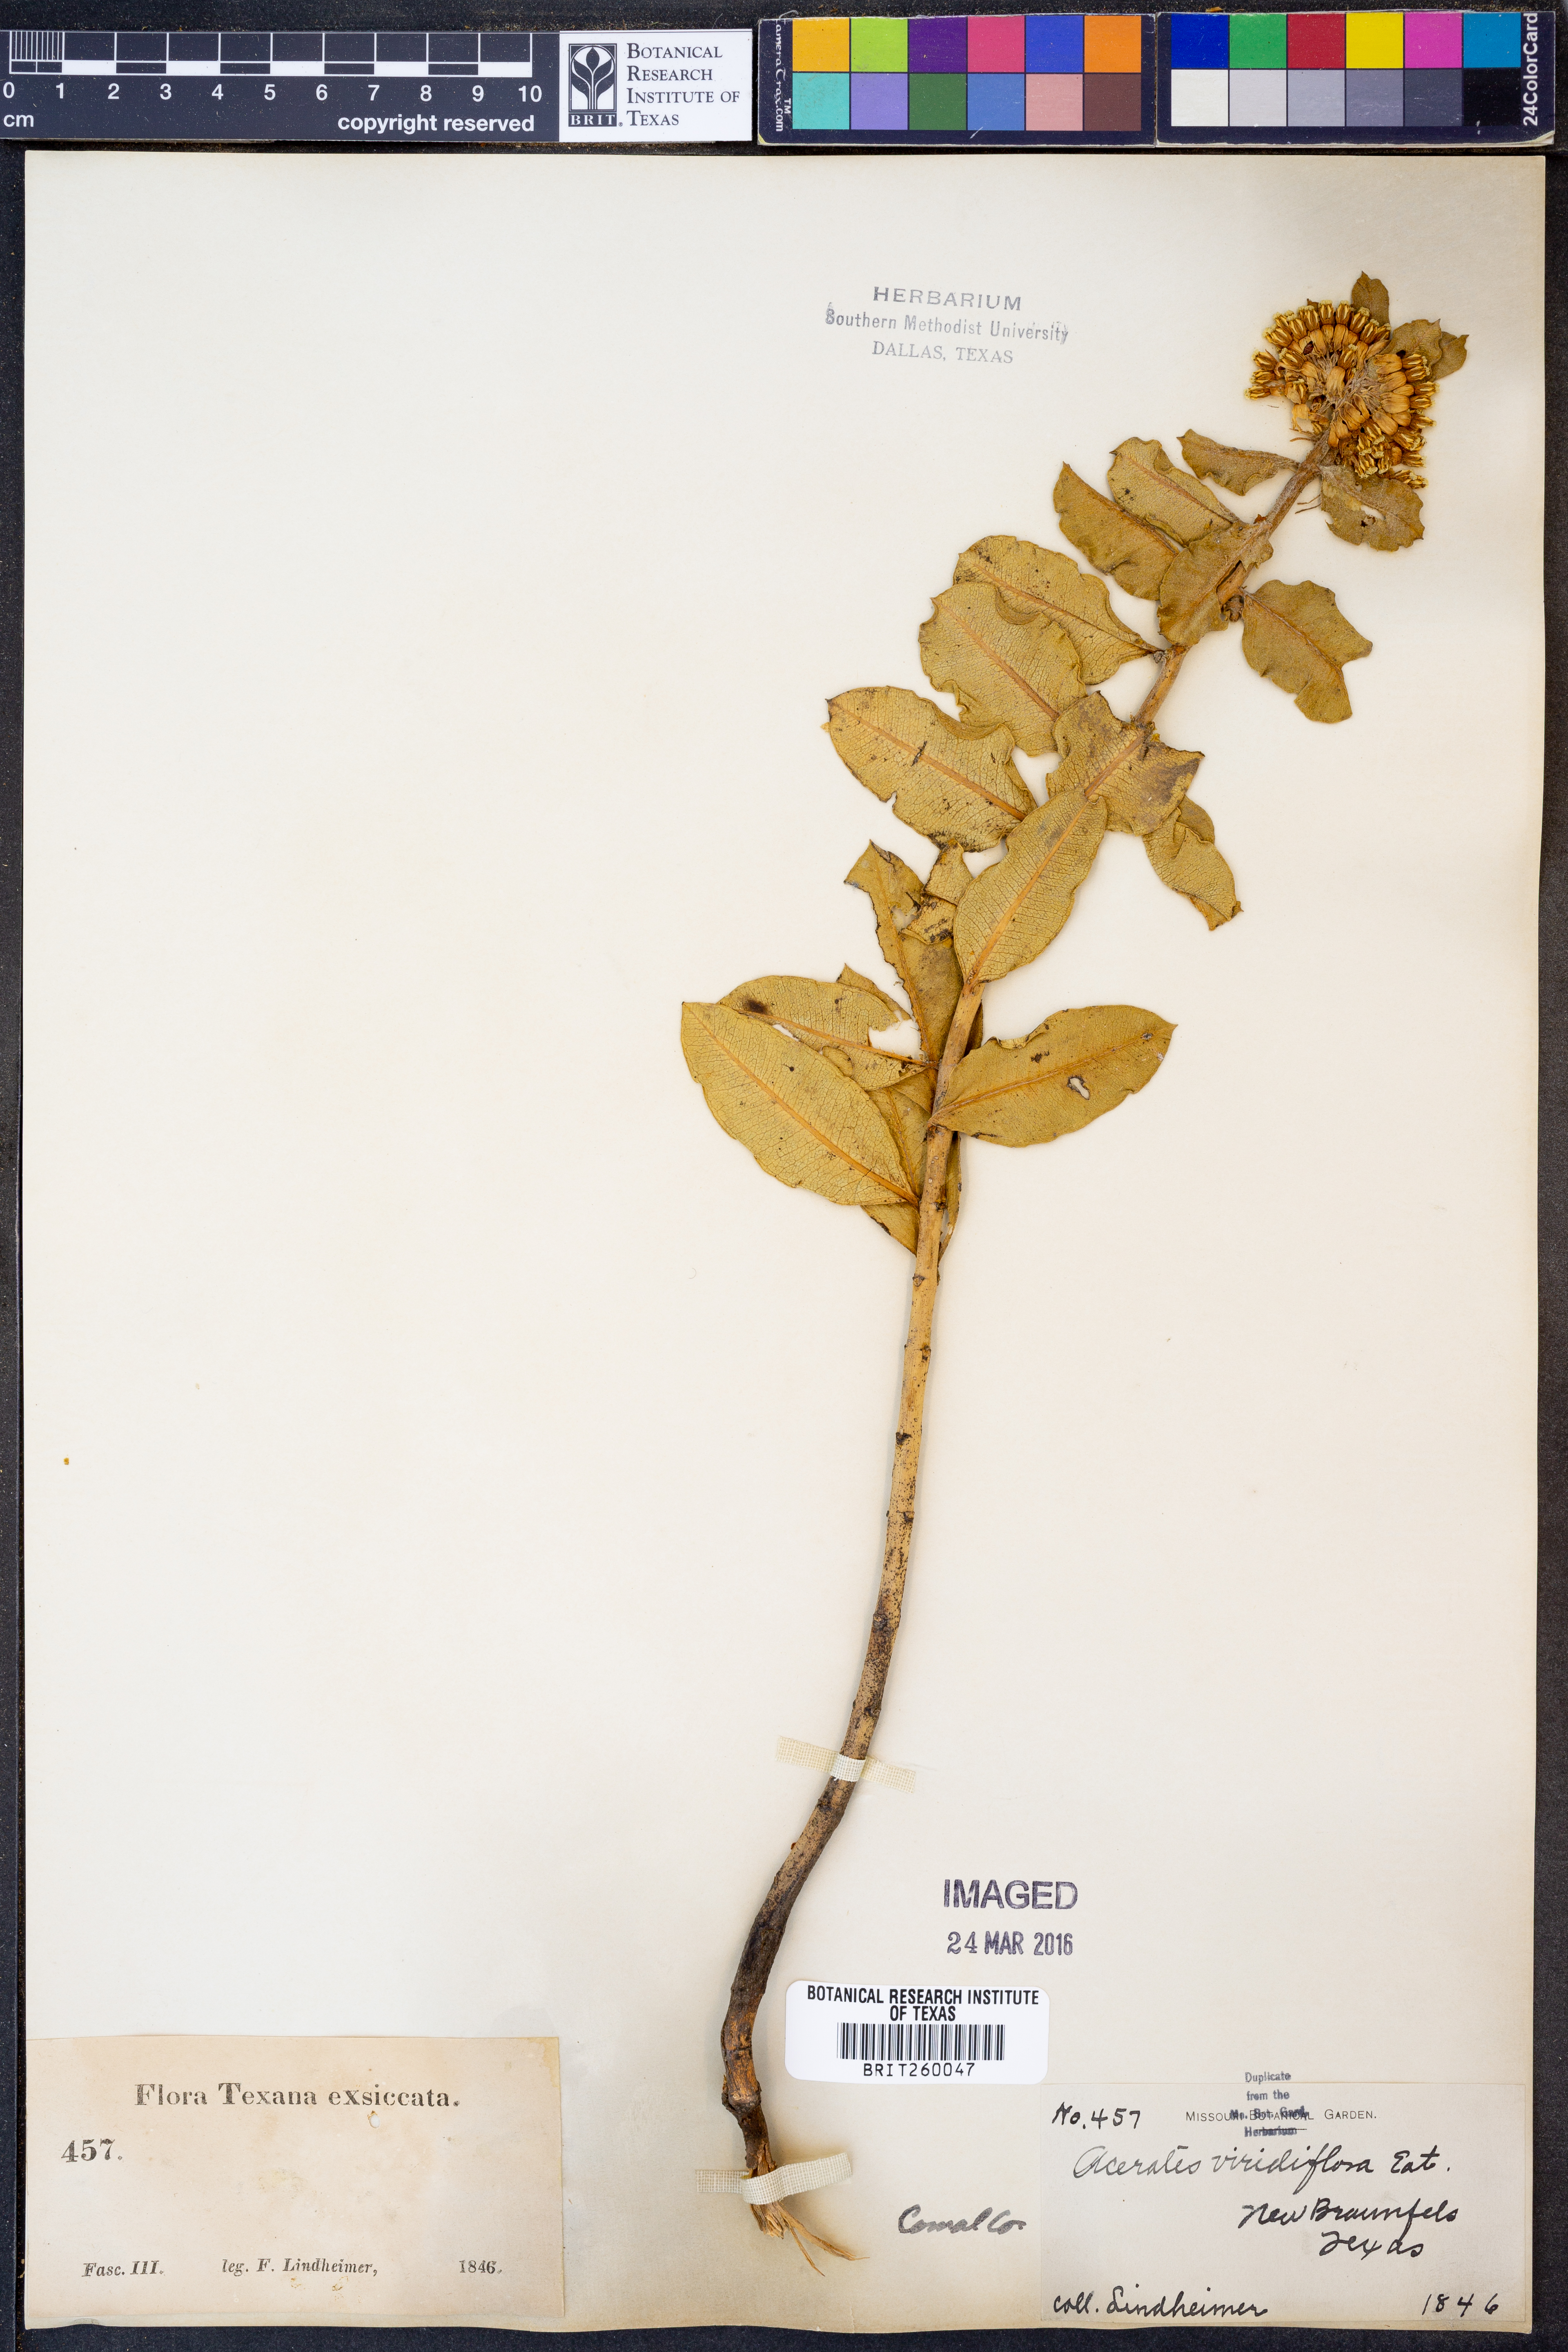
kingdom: Plantae
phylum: Tracheophyta
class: Magnoliopsida
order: Gentianales
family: Apocynaceae
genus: Asclepias
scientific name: Asclepias viridiflora
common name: Green comet milkweed
